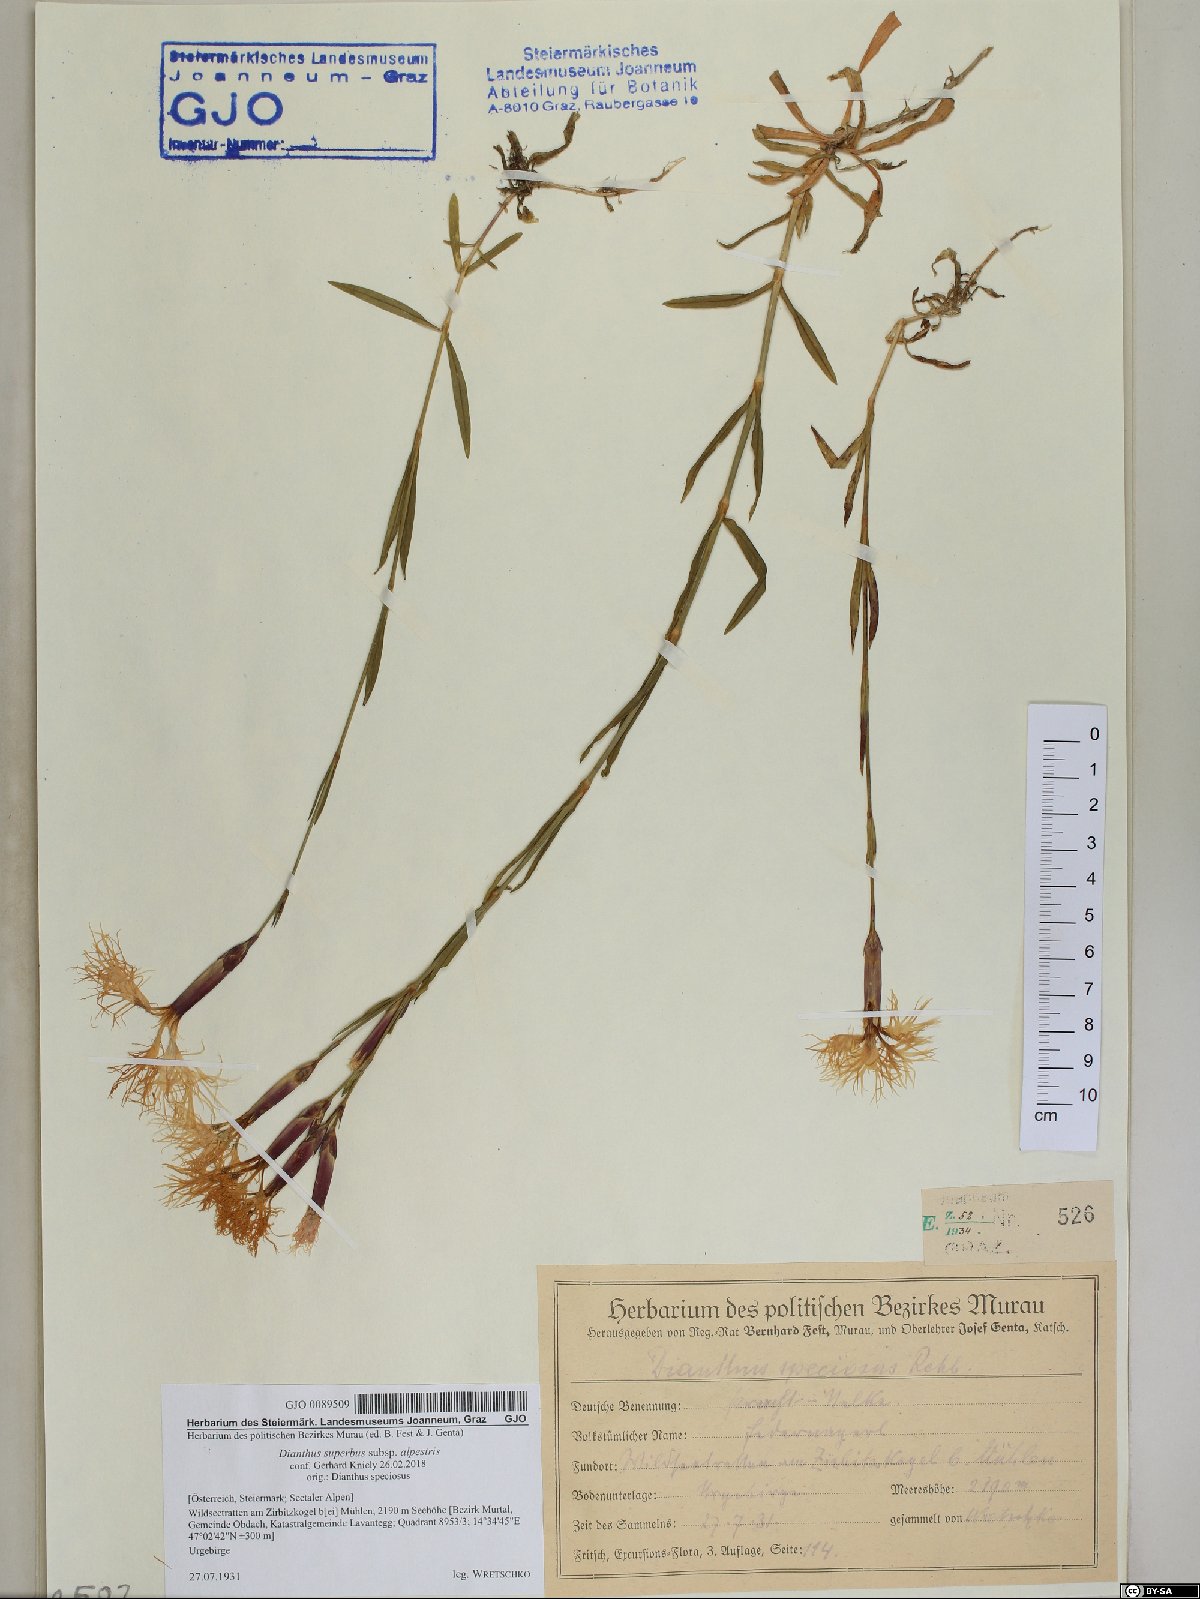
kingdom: Plantae
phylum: Tracheophyta
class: Magnoliopsida
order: Caryophyllales
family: Caryophyllaceae
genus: Dianthus
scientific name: Dianthus superbus
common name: Fringed pink
